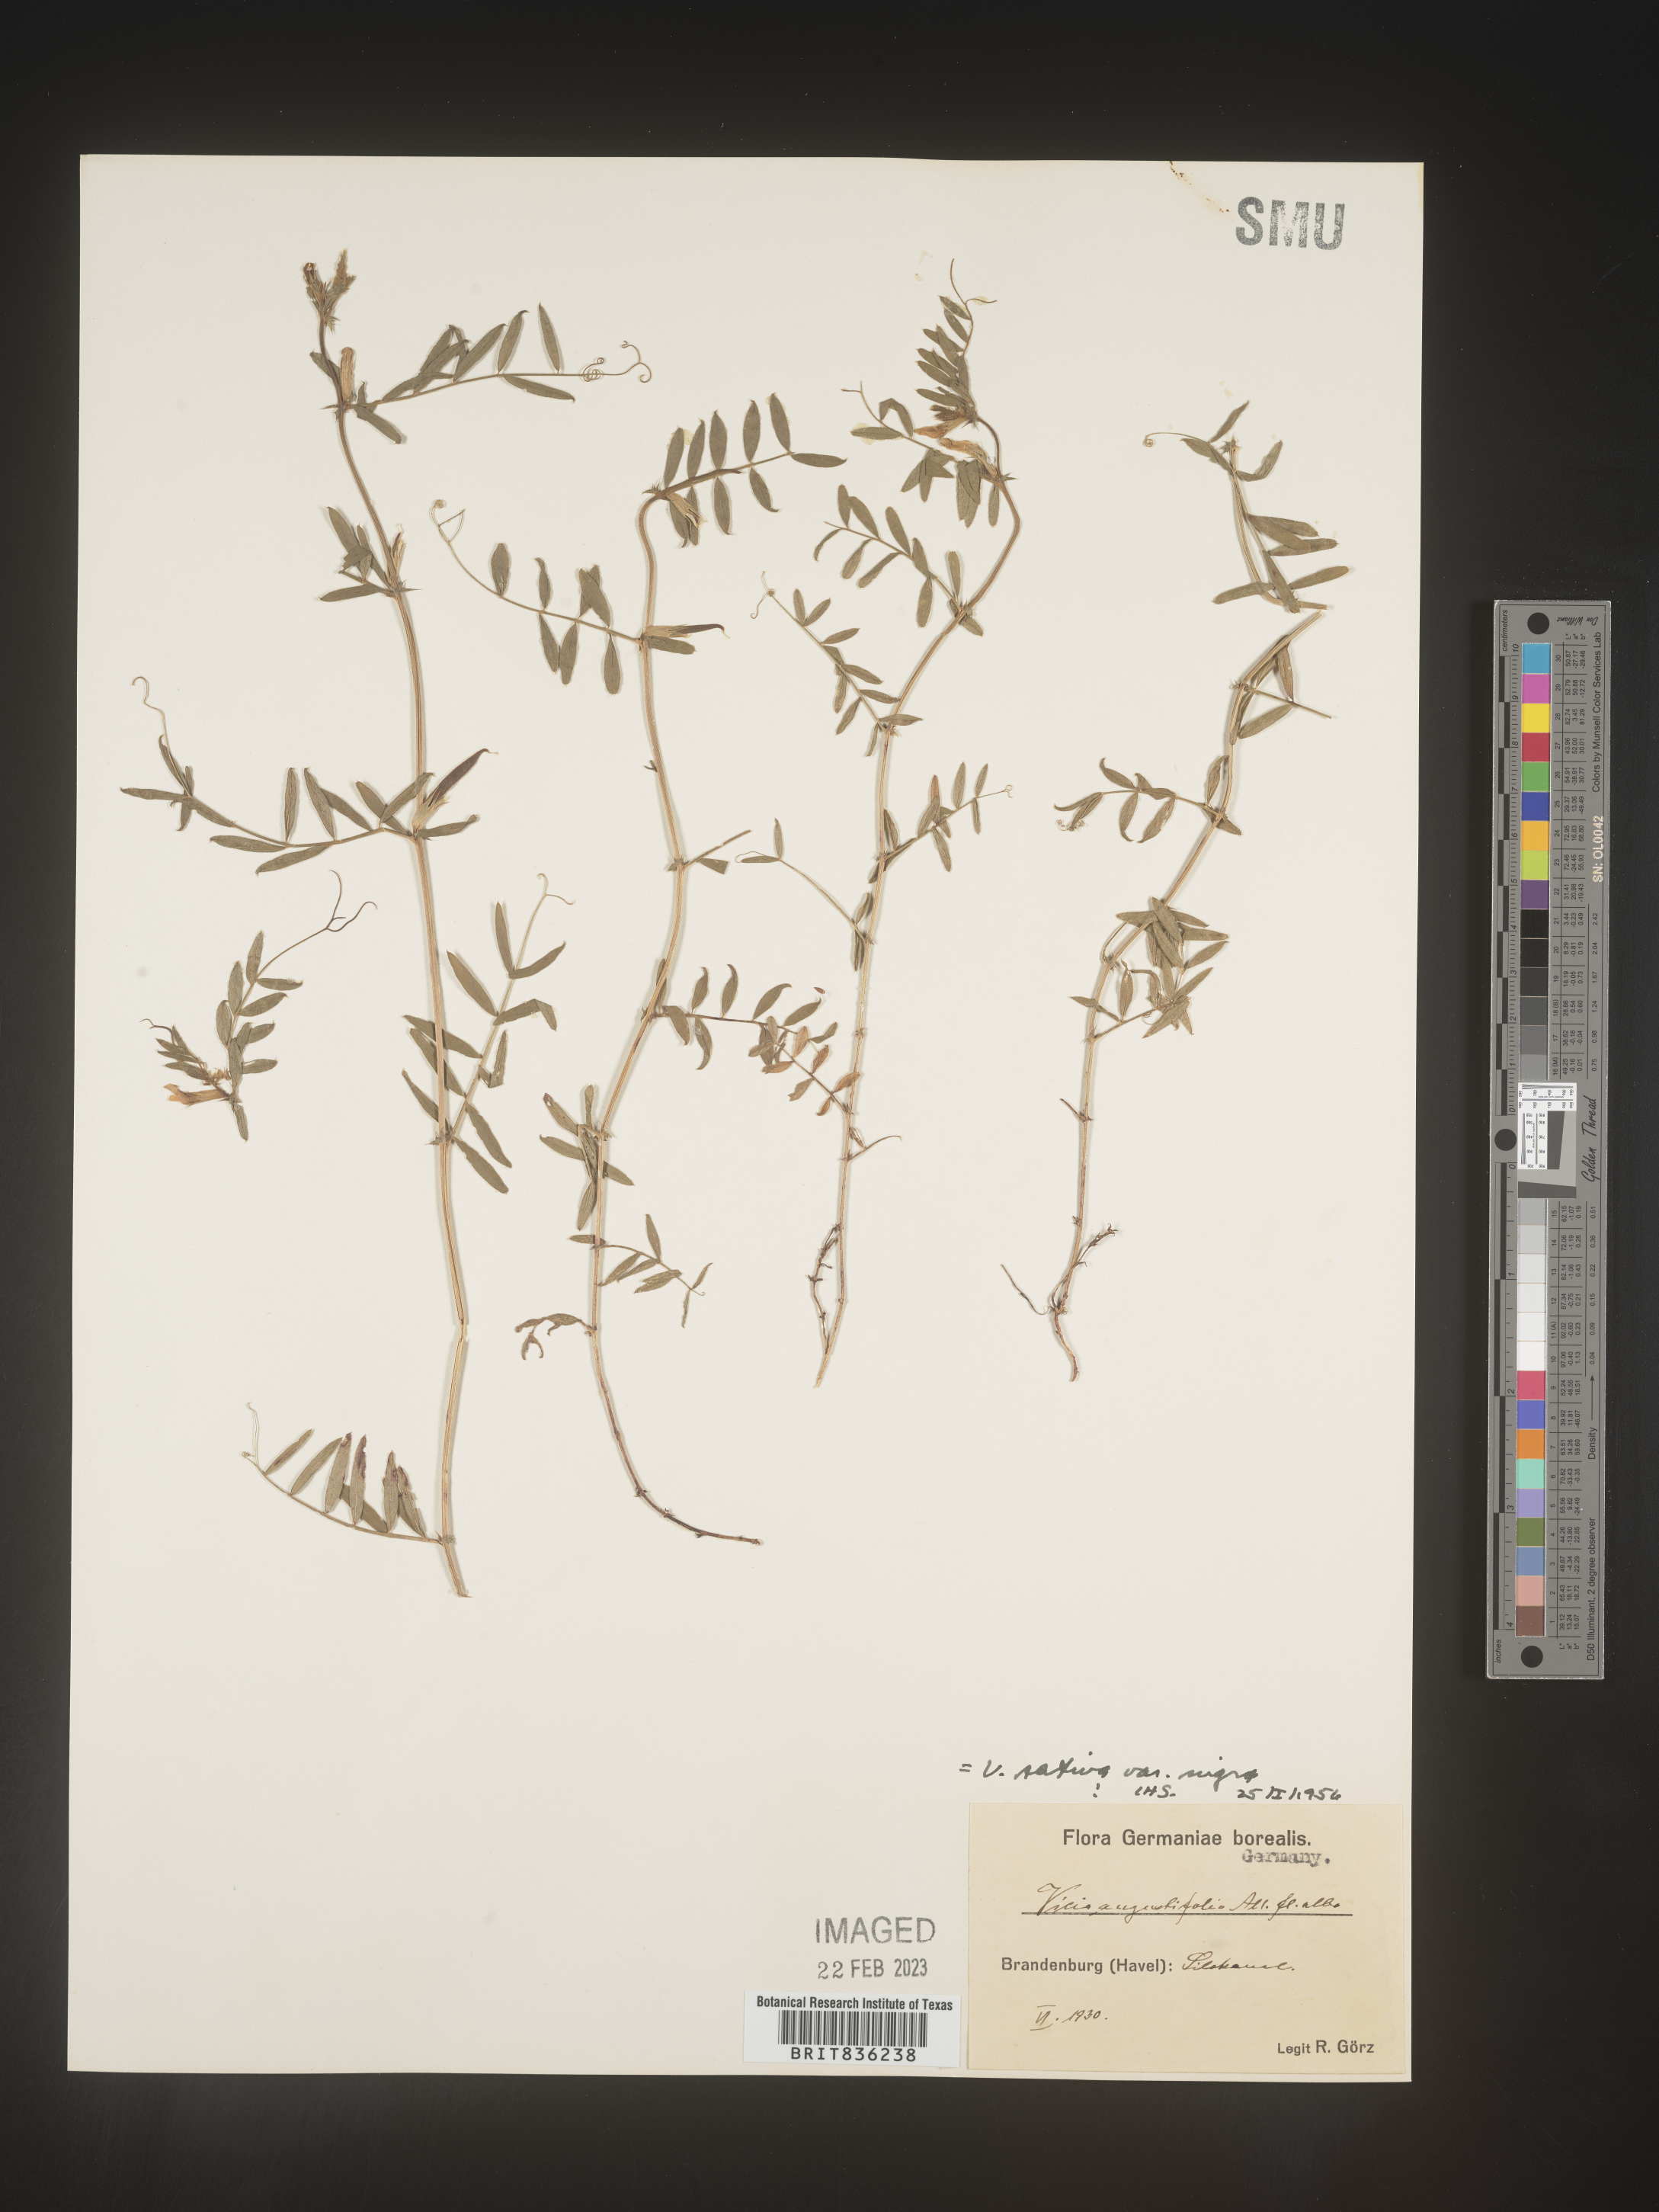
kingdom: Plantae
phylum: Tracheophyta
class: Magnoliopsida
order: Fabales
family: Fabaceae
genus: Vicia
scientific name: Vicia
